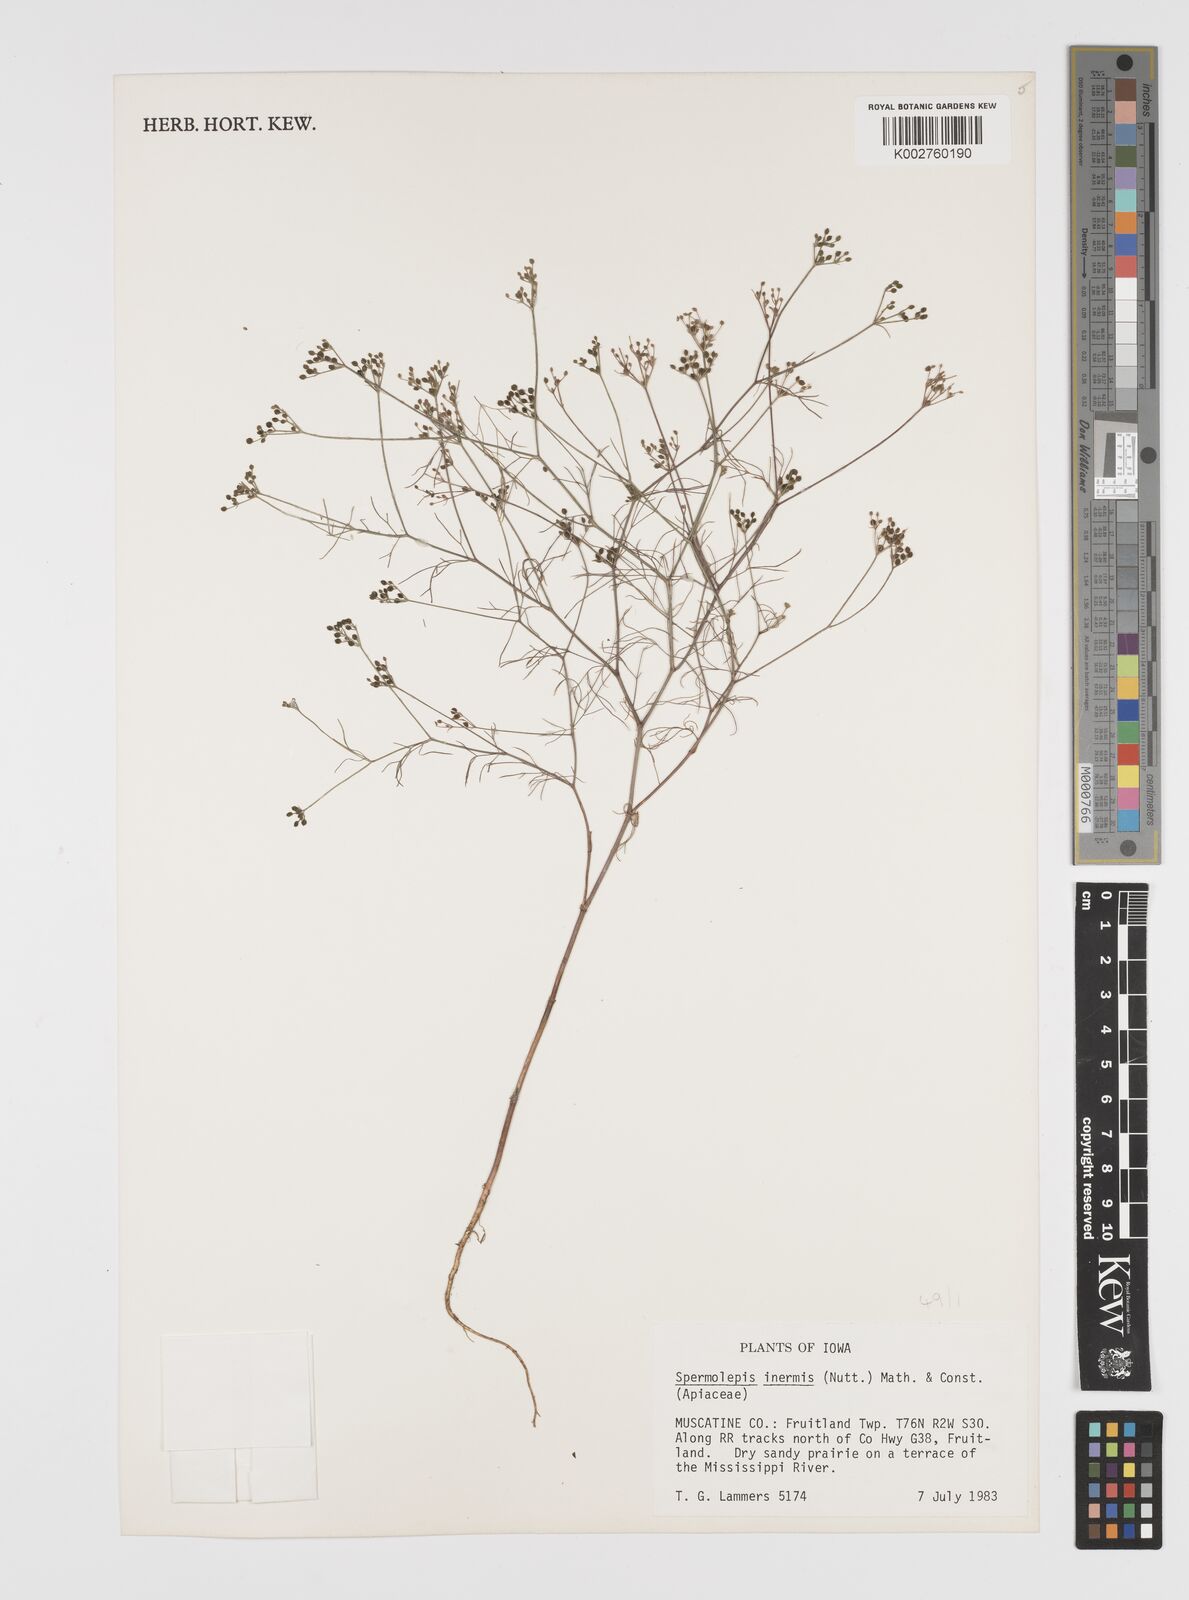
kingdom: Plantae
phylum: Tracheophyta
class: Magnoliopsida
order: Apiales
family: Apiaceae
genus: Spermolepis
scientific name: Spermolepis inermis
